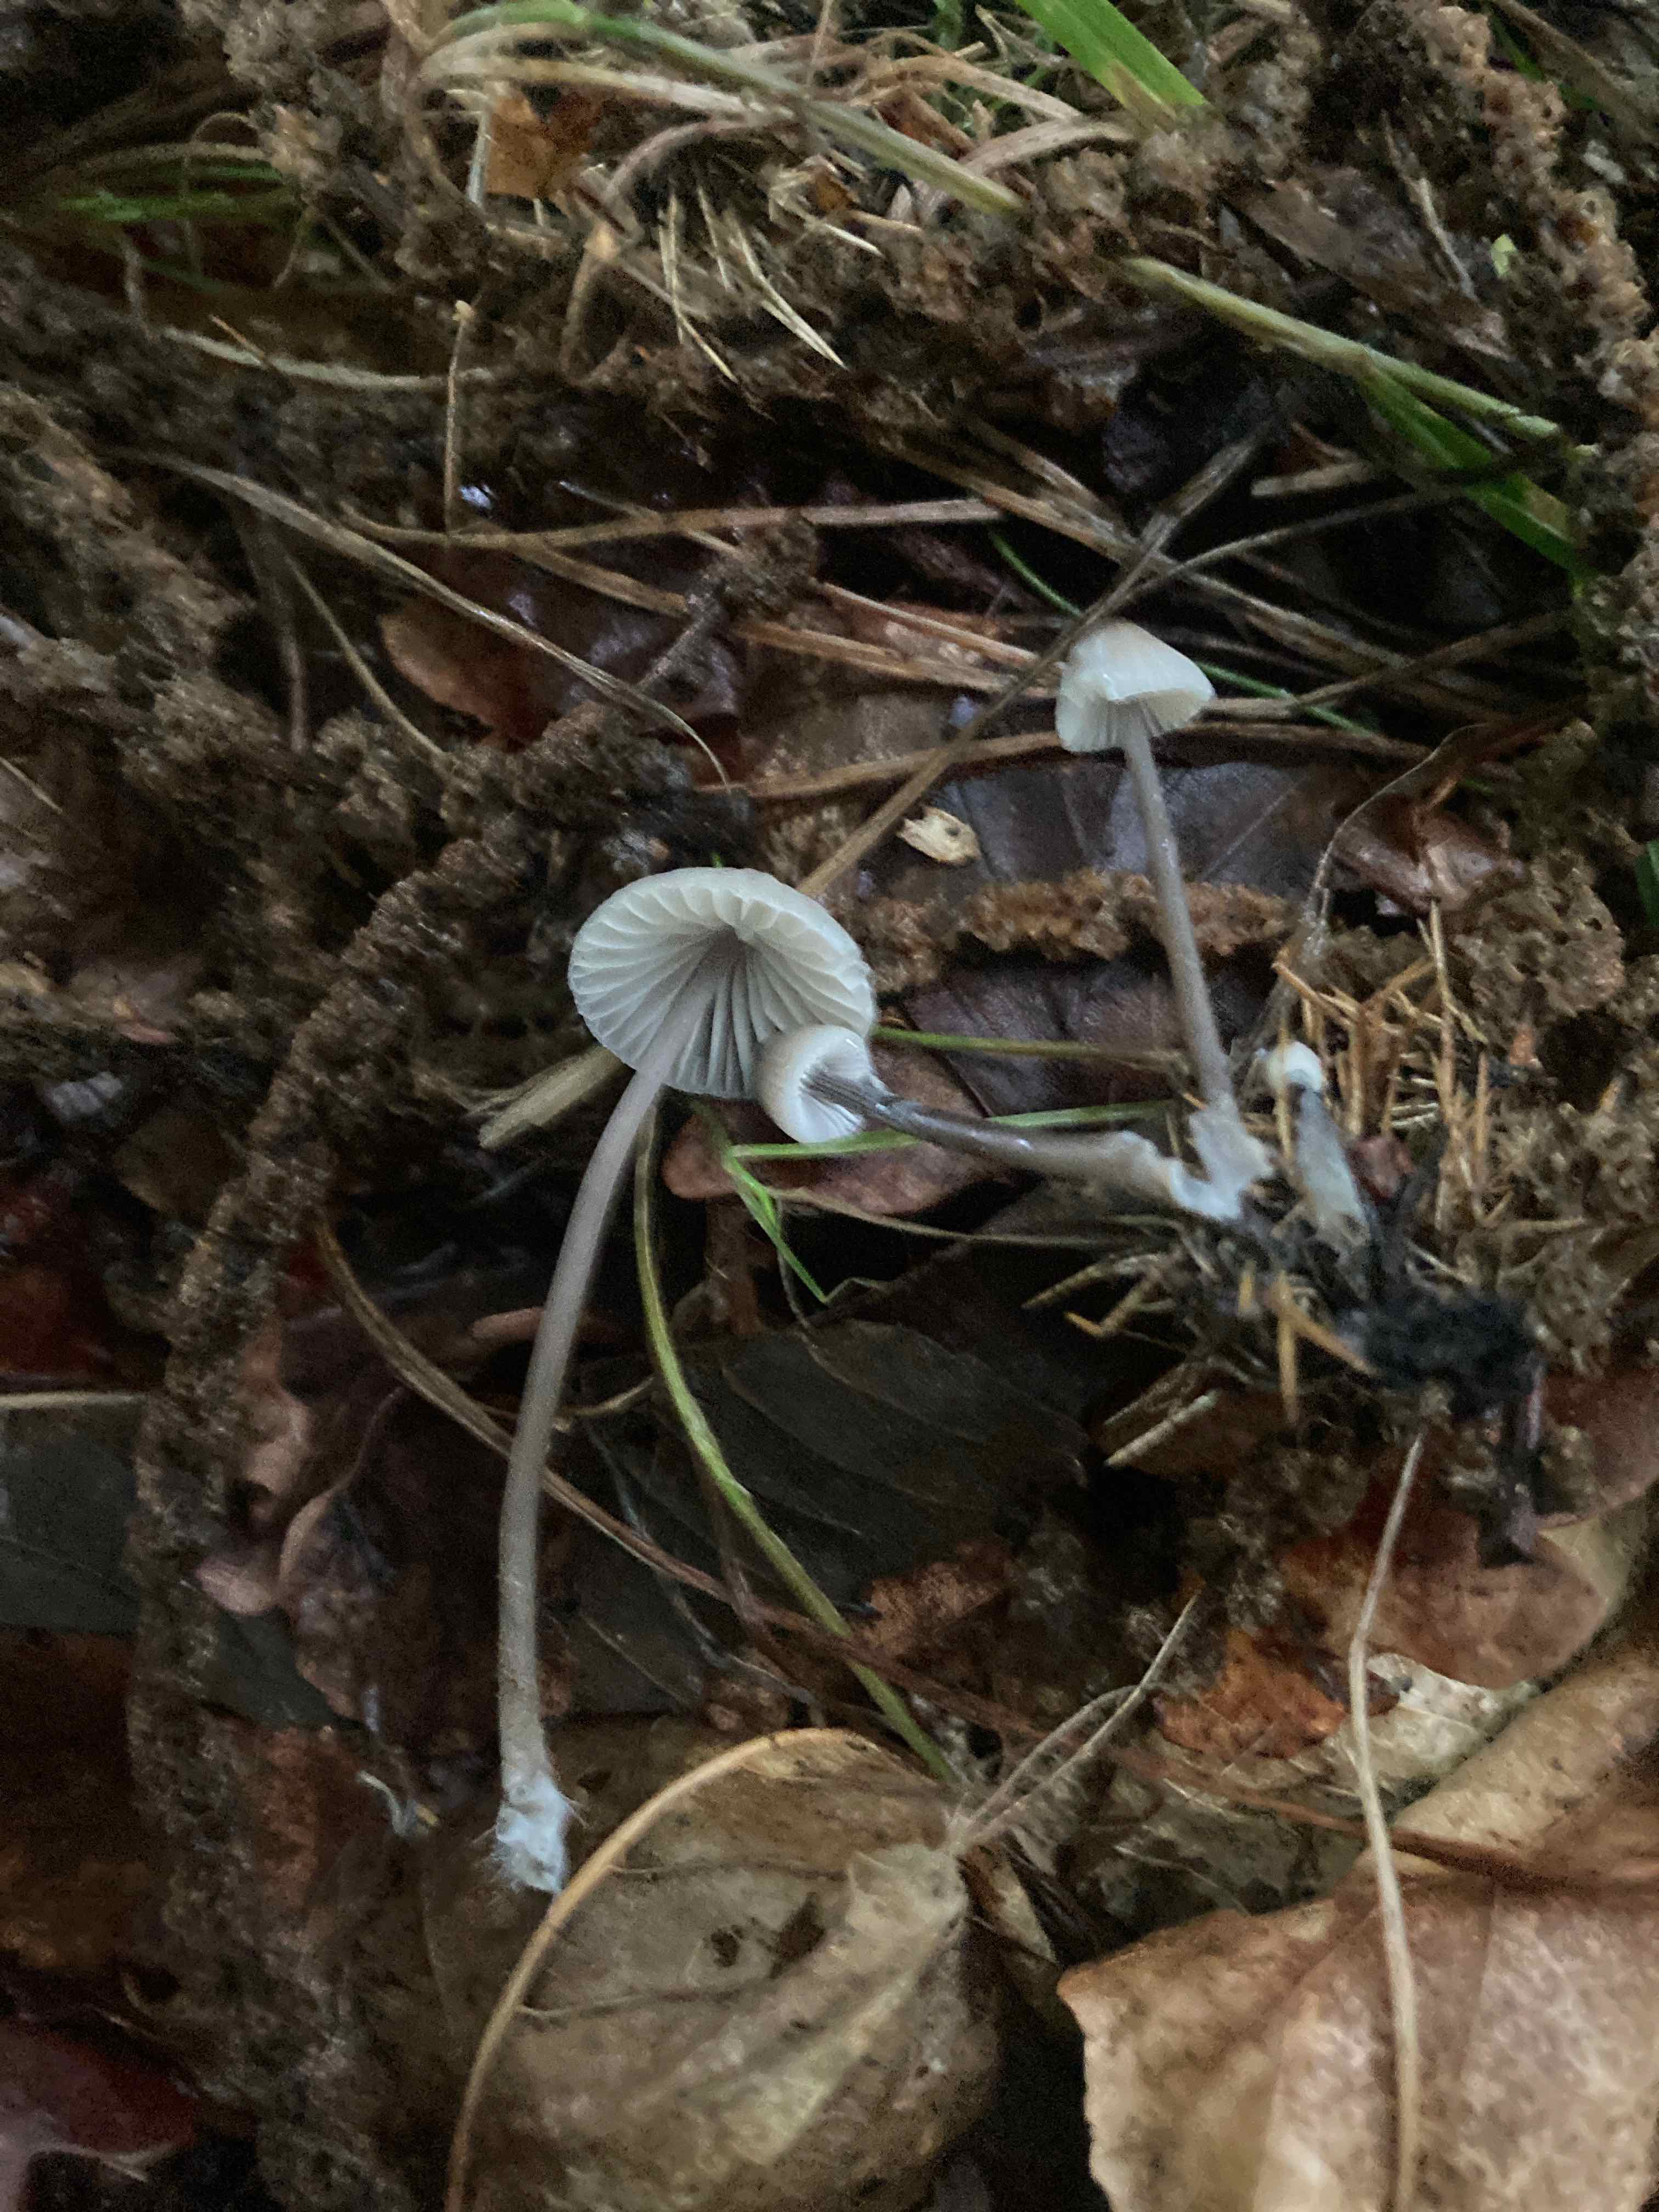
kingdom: Fungi
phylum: Basidiomycota
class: Agaricomycetes
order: Agaricales
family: Mycenaceae
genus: Mycena
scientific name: Mycena galopus
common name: hvidmælket huesvamp
